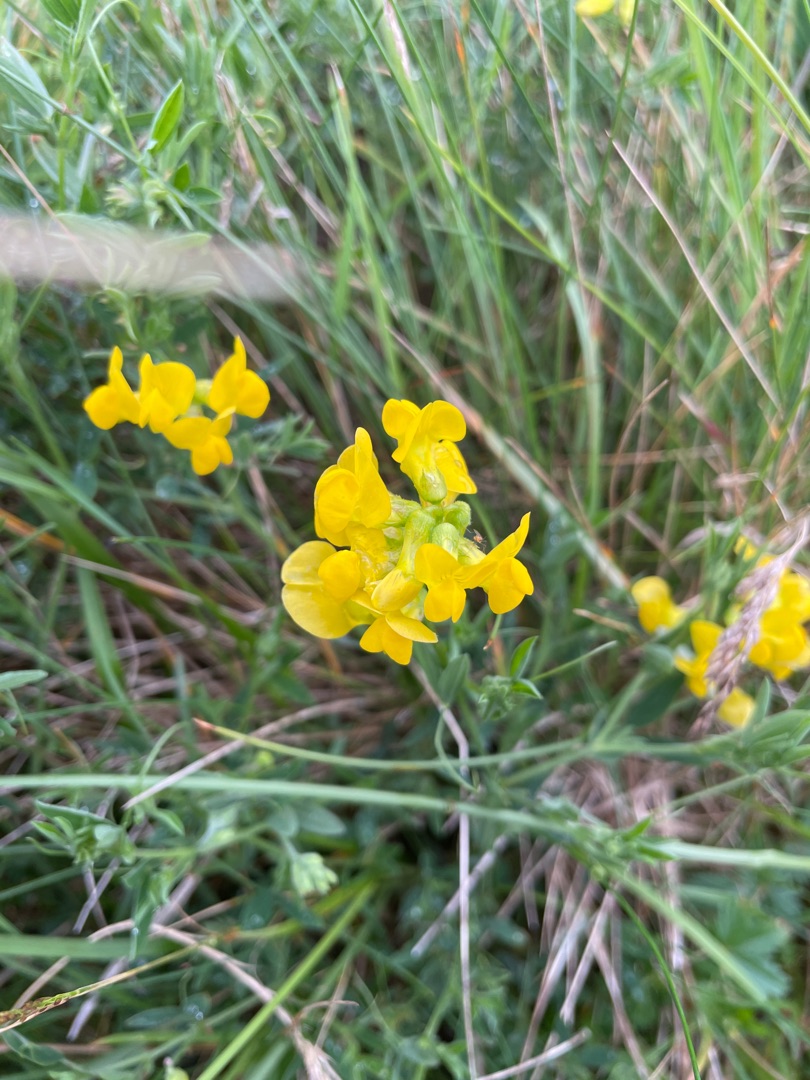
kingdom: Plantae
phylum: Tracheophyta
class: Magnoliopsida
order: Fabales
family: Fabaceae
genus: Lathyrus
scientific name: Lathyrus pratensis
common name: Gul fladbælg
